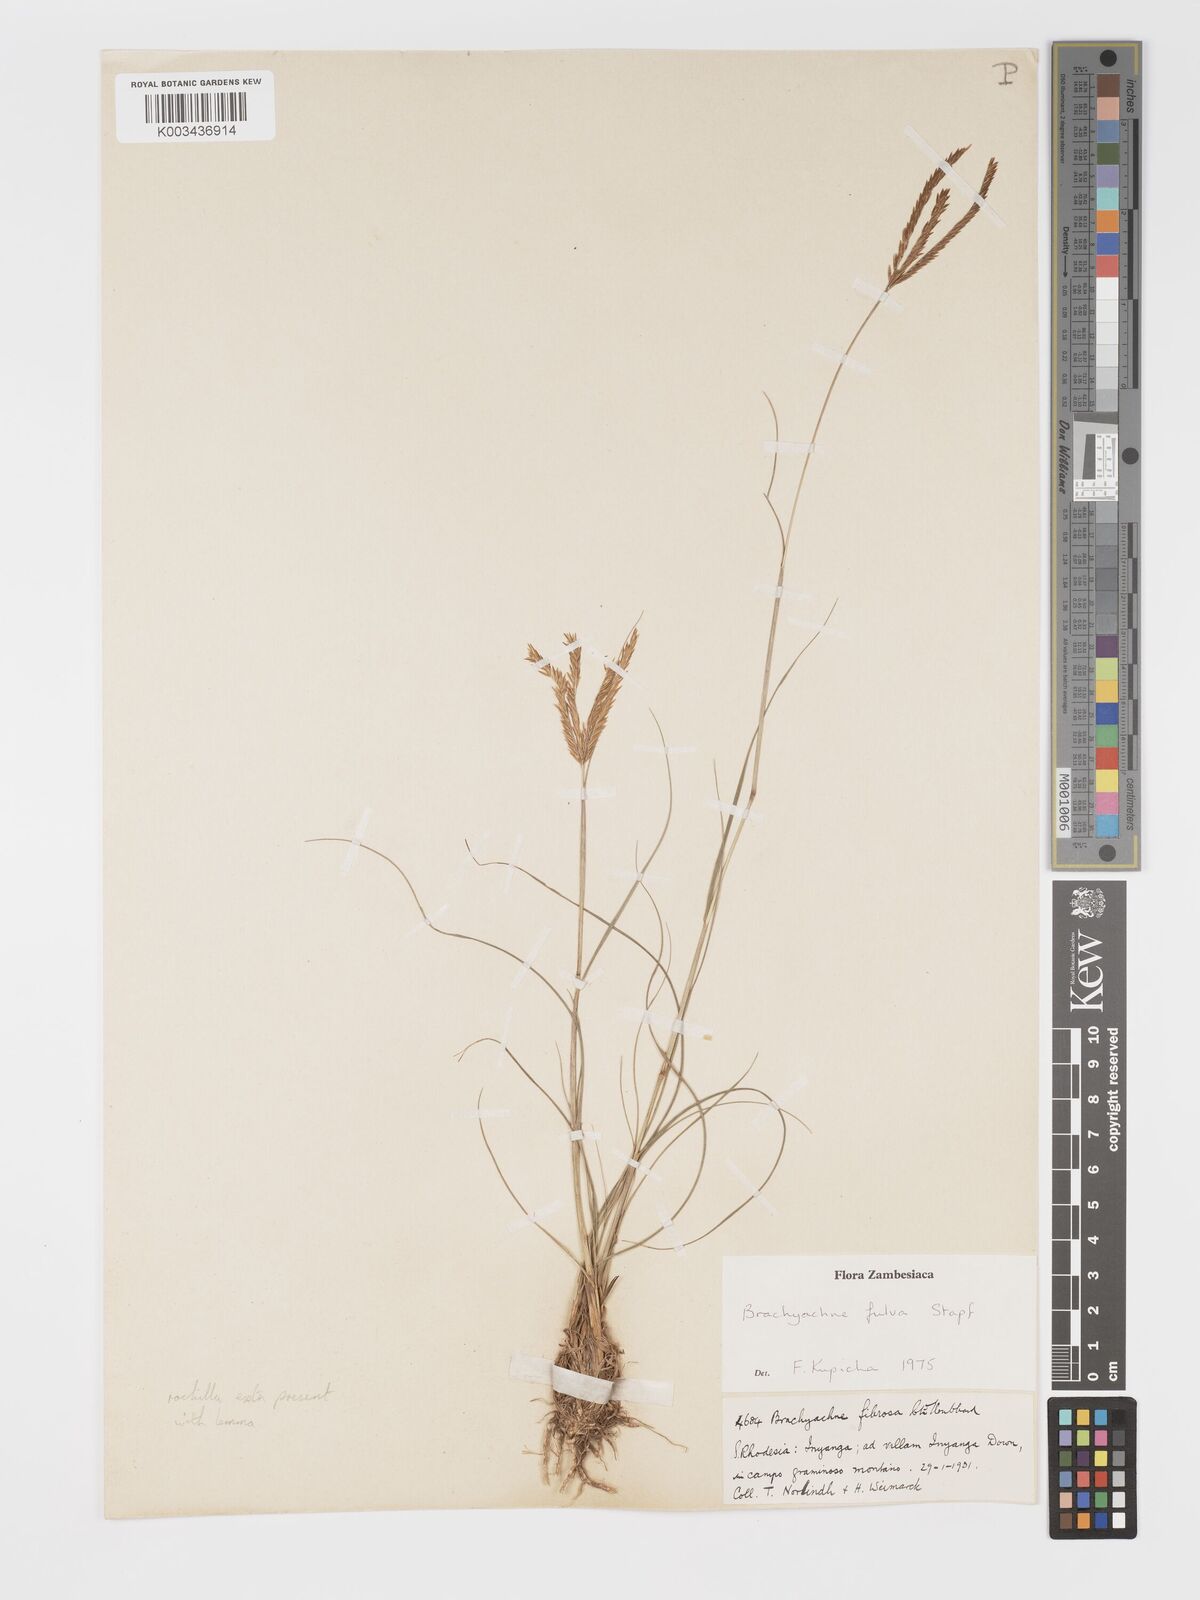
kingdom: Plantae
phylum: Tracheophyta
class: Liliopsida
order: Poales
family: Poaceae
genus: Micrachne
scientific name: Micrachne fulva
